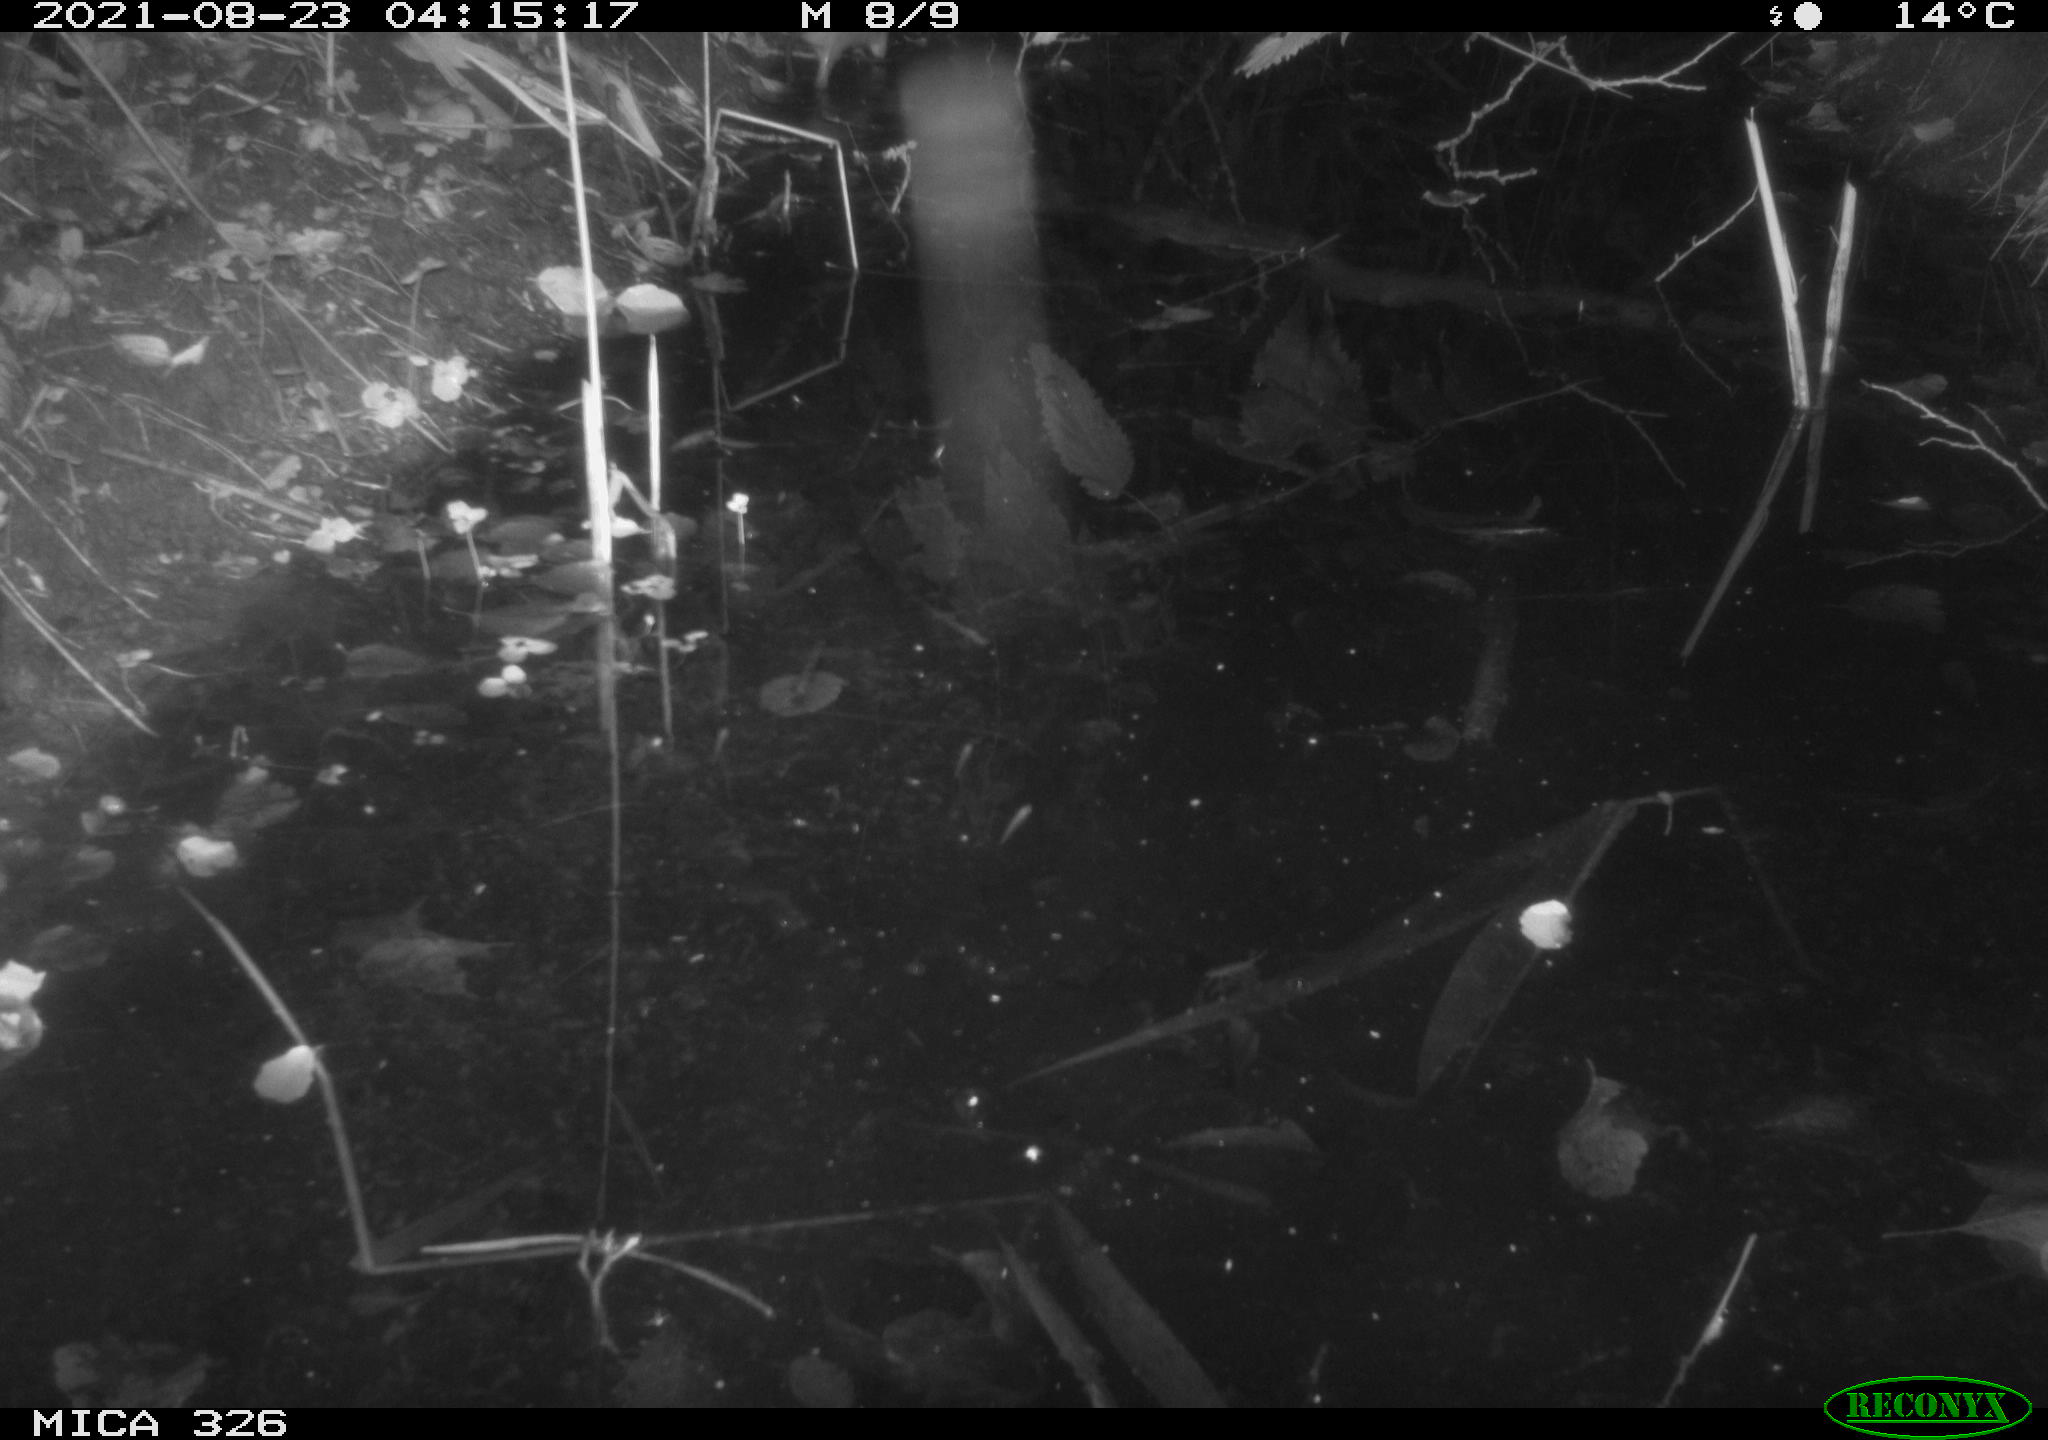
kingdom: Animalia
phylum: Chordata
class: Mammalia
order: Rodentia
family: Muridae
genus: Rattus
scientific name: Rattus norvegicus
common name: Brown rat
